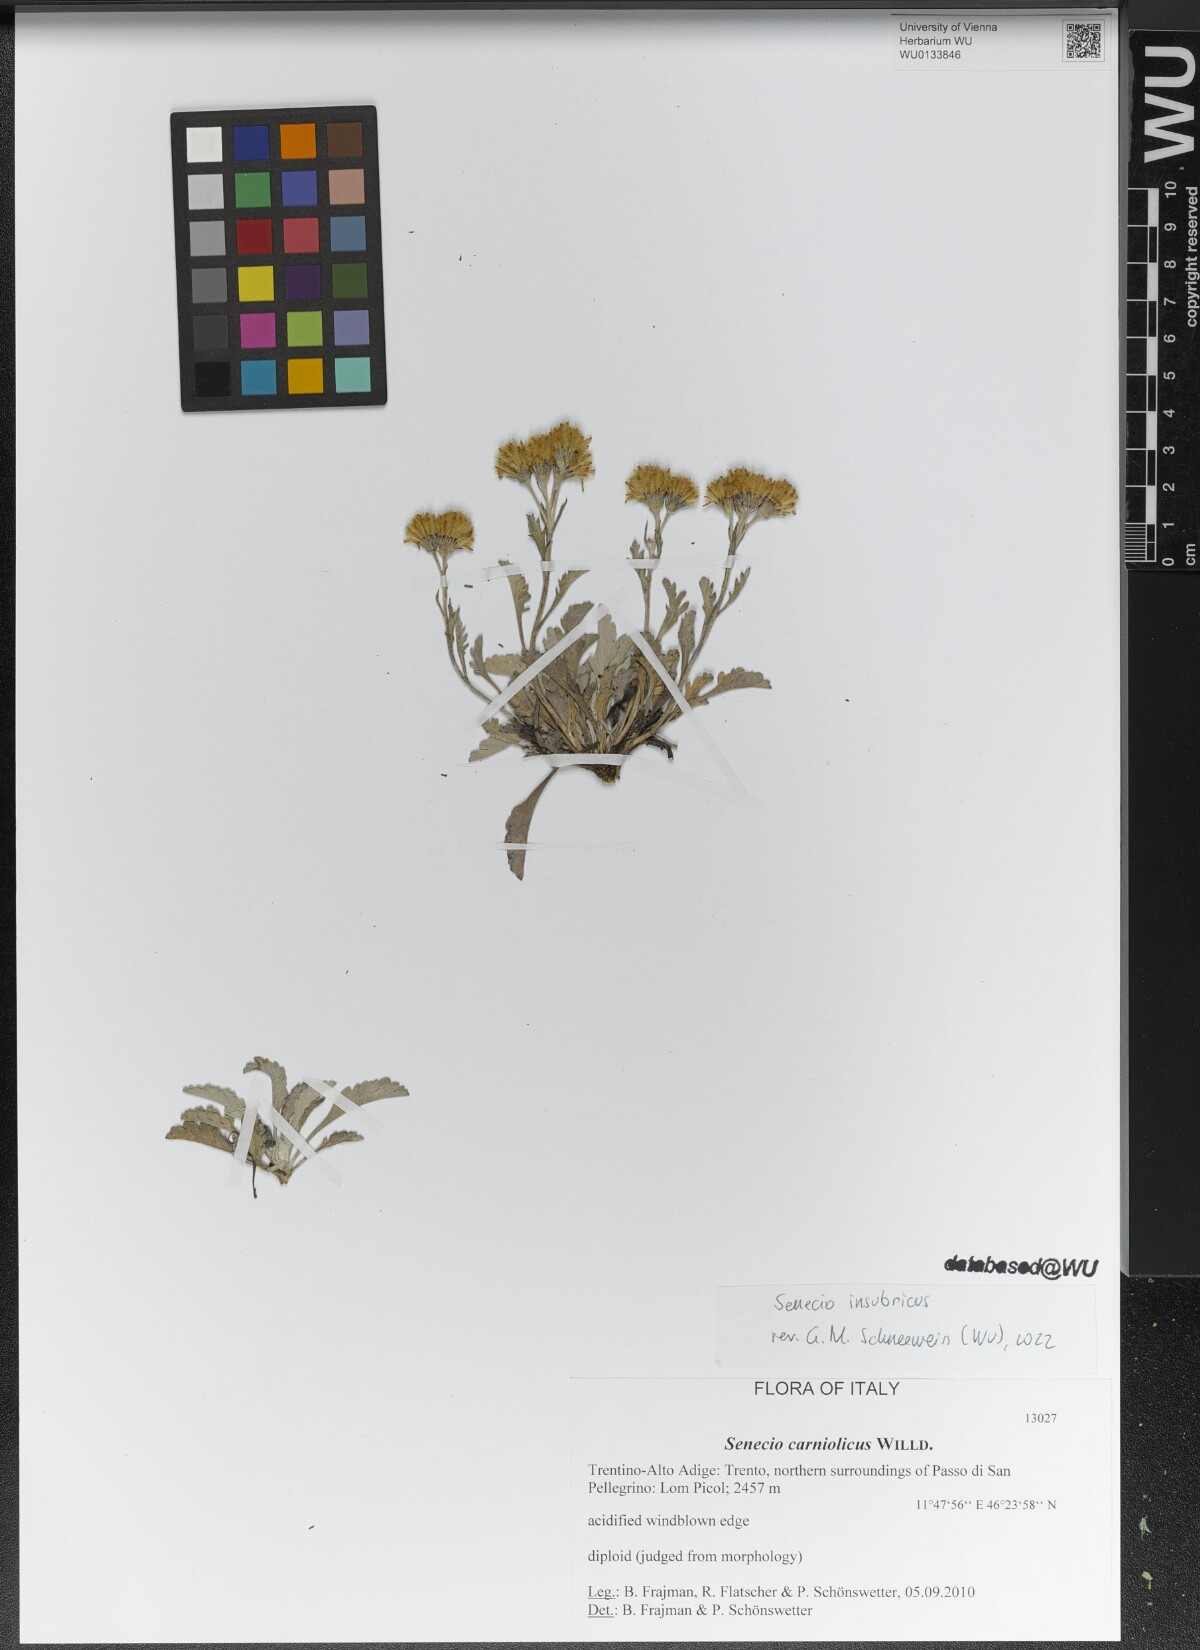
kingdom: Plantae
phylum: Tracheophyta
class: Magnoliopsida
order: Asterales
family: Asteraceae
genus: Jacobaea
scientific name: Jacobaea insubrica
